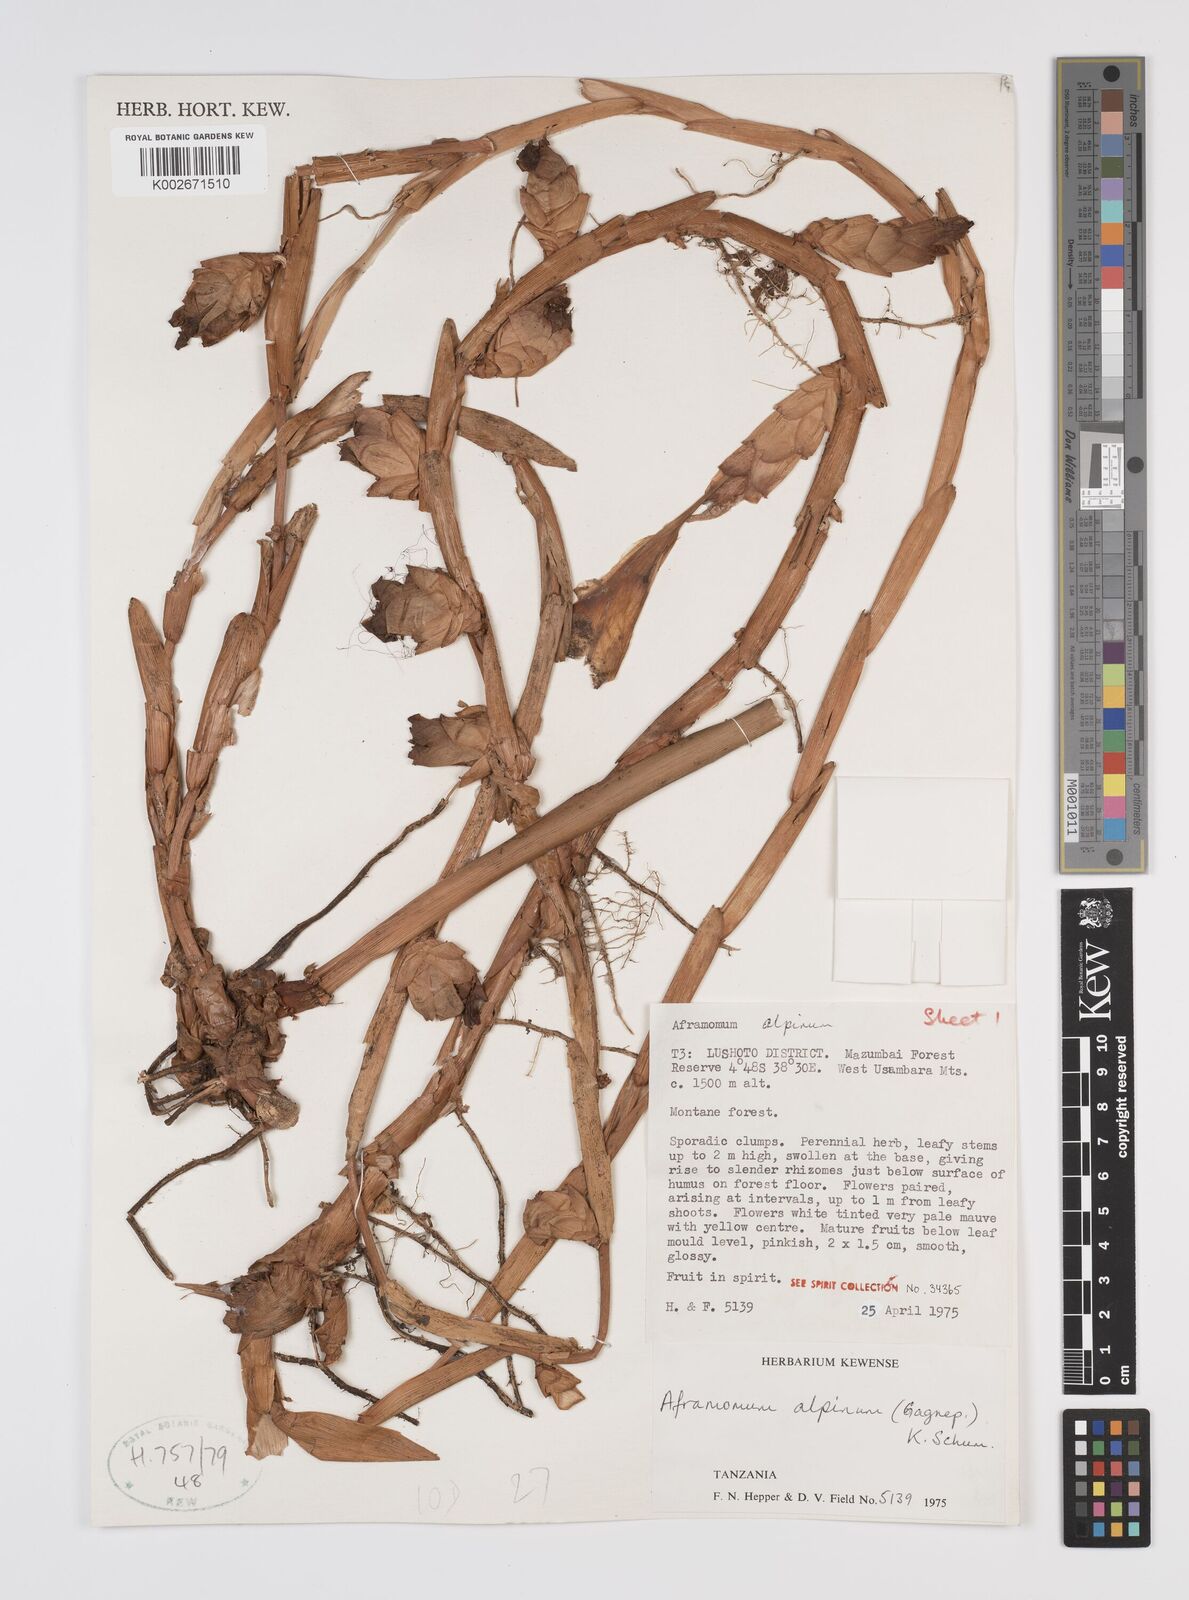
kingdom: Plantae
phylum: Tracheophyta
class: Liliopsida
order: Zingiberales
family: Zingiberaceae
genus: Aframomum
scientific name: Aframomum alpinum
